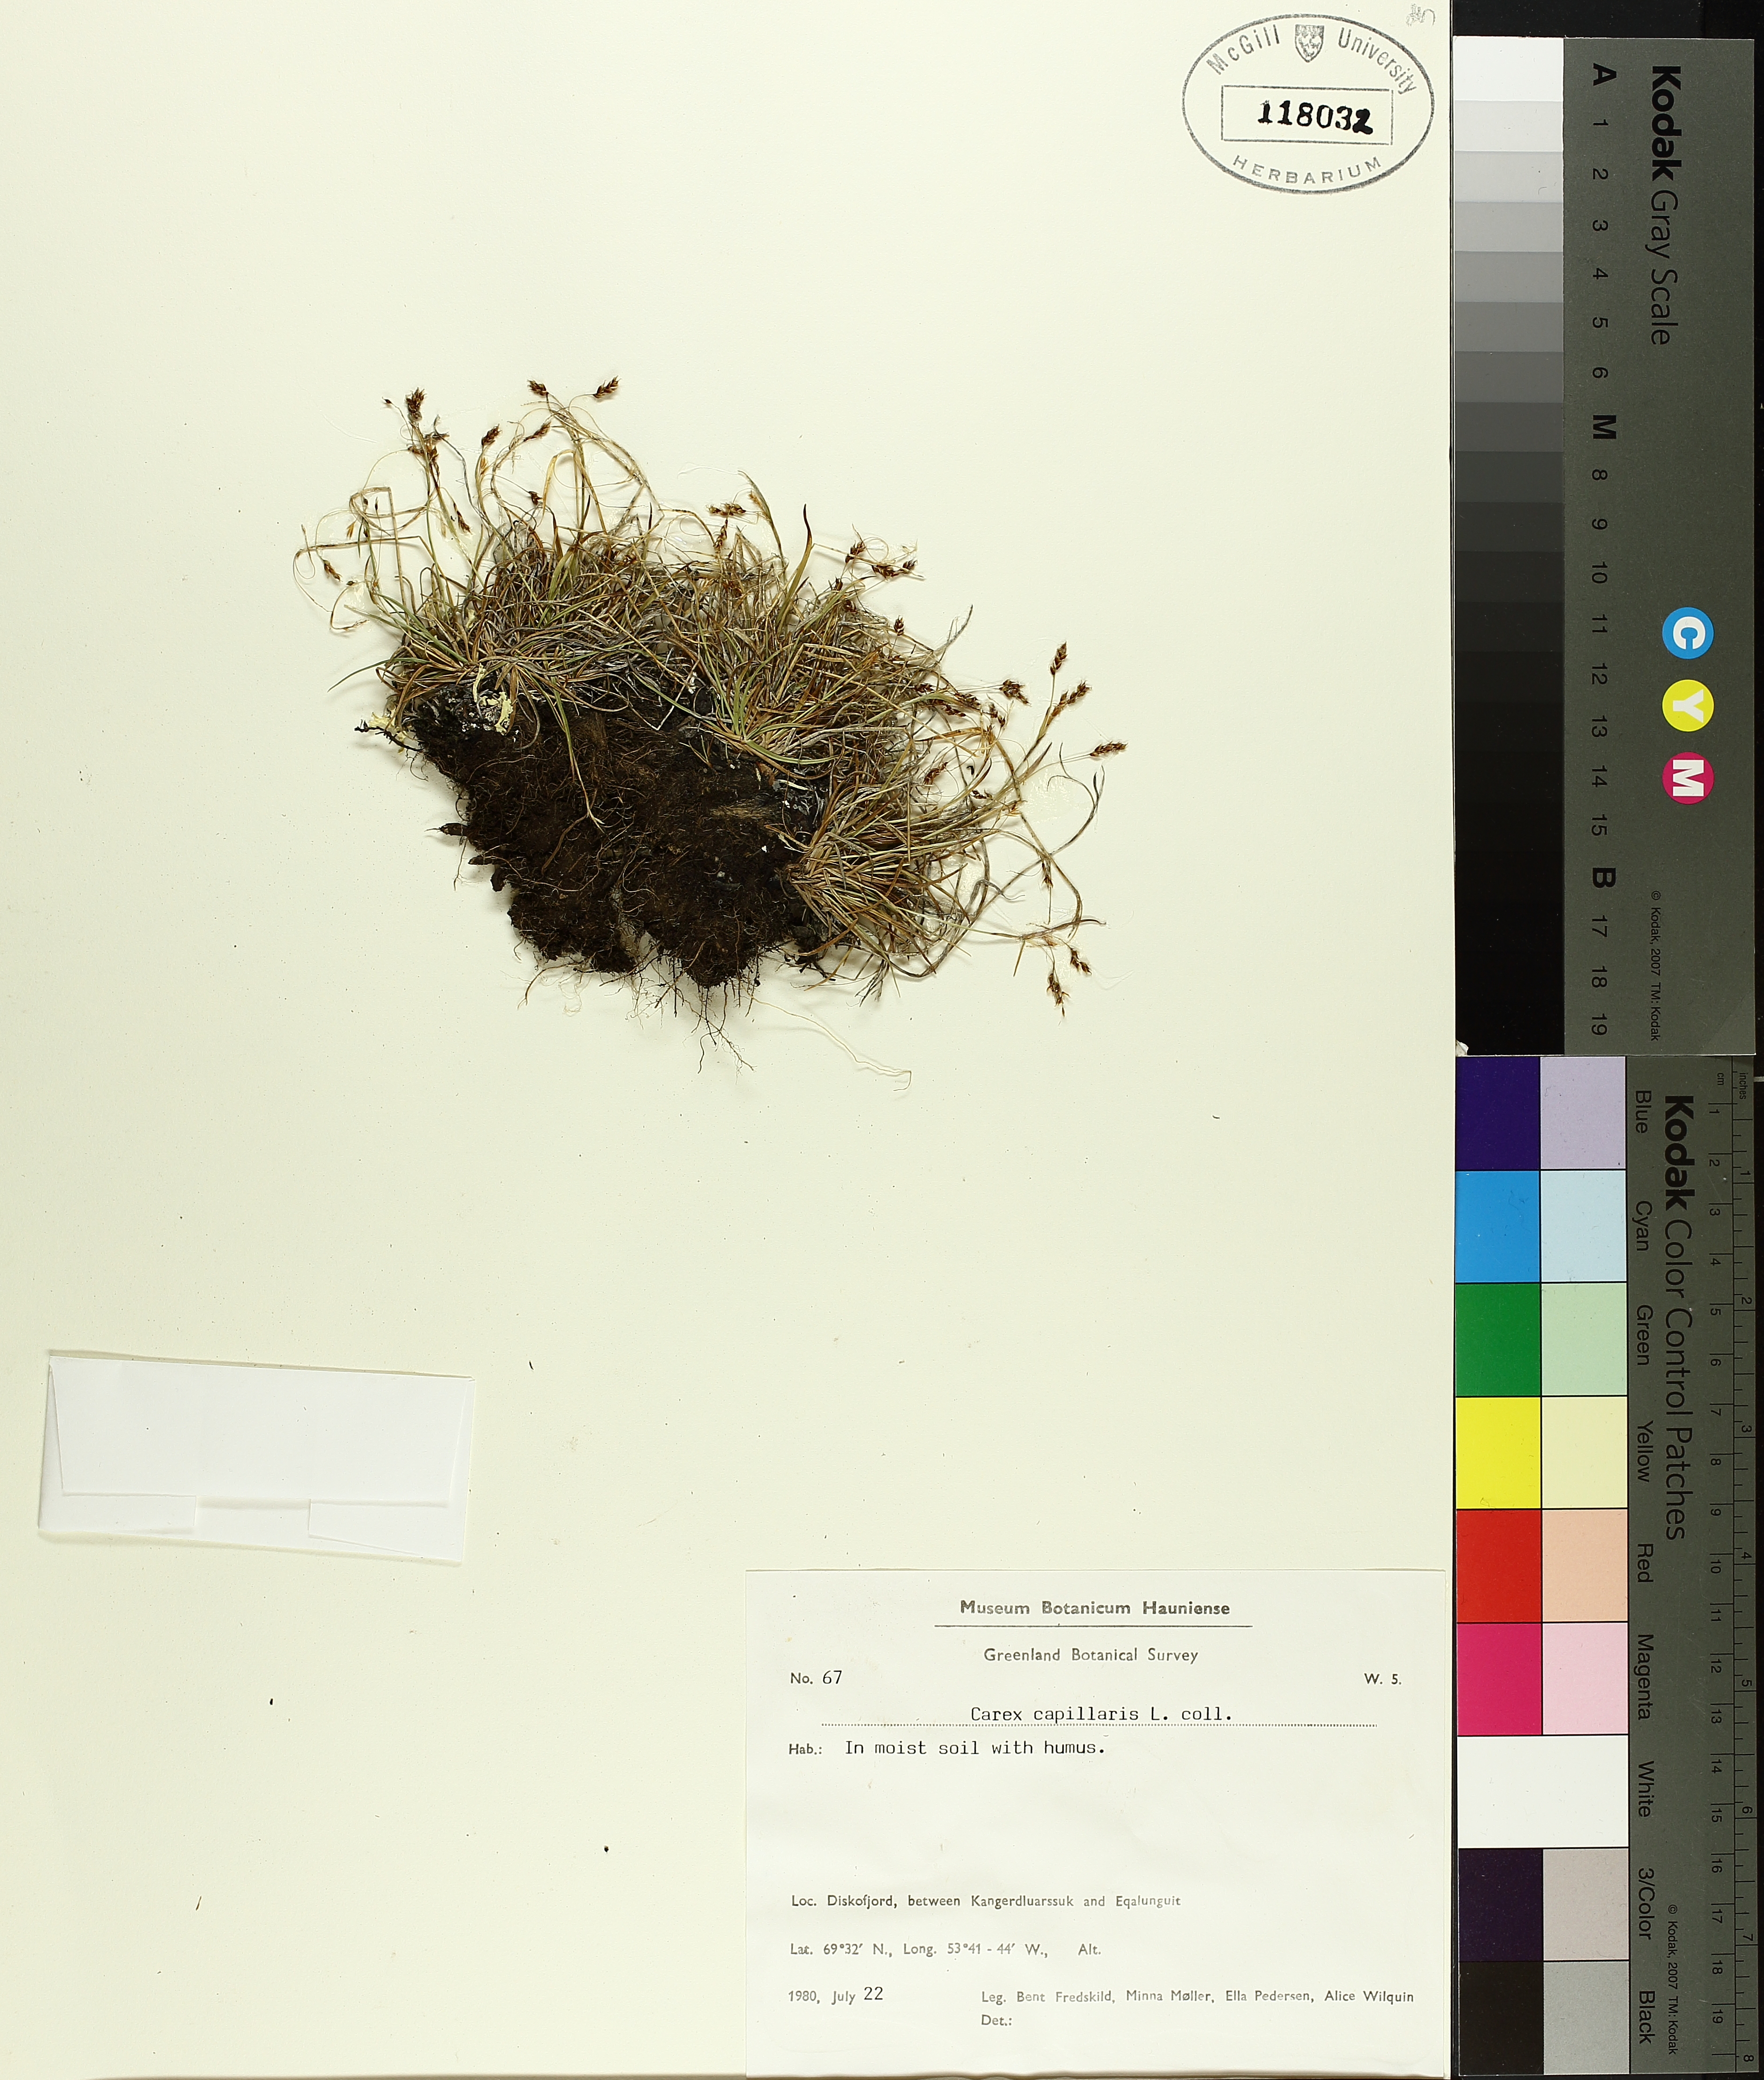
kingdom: Plantae
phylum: Tracheophyta
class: Liliopsida
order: Poales
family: Cyperaceae
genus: Carex
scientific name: Carex capillaris
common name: Hair sedge
